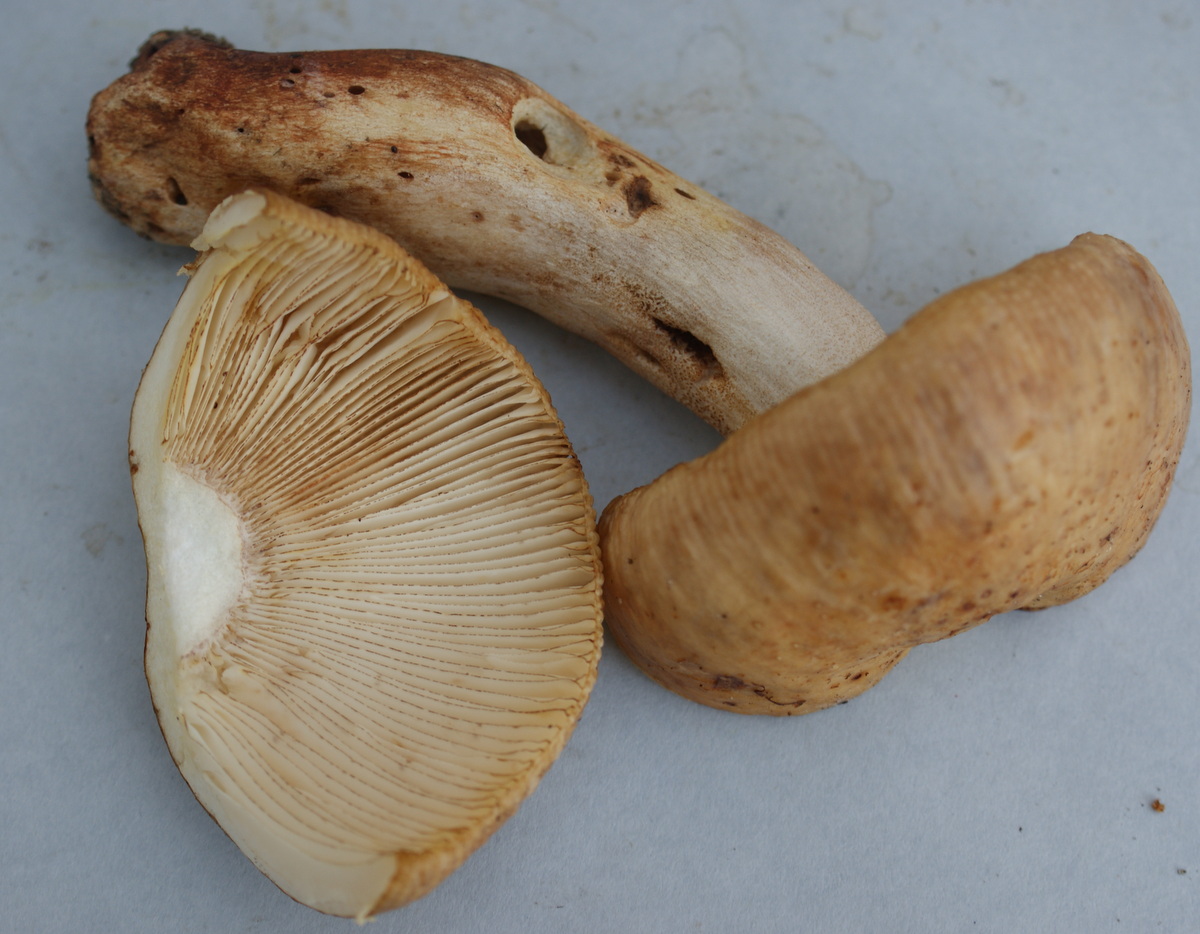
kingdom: Fungi
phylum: Basidiomycota
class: Agaricomycetes
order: Russulales
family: Russulaceae
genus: Russula
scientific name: Russula illota
